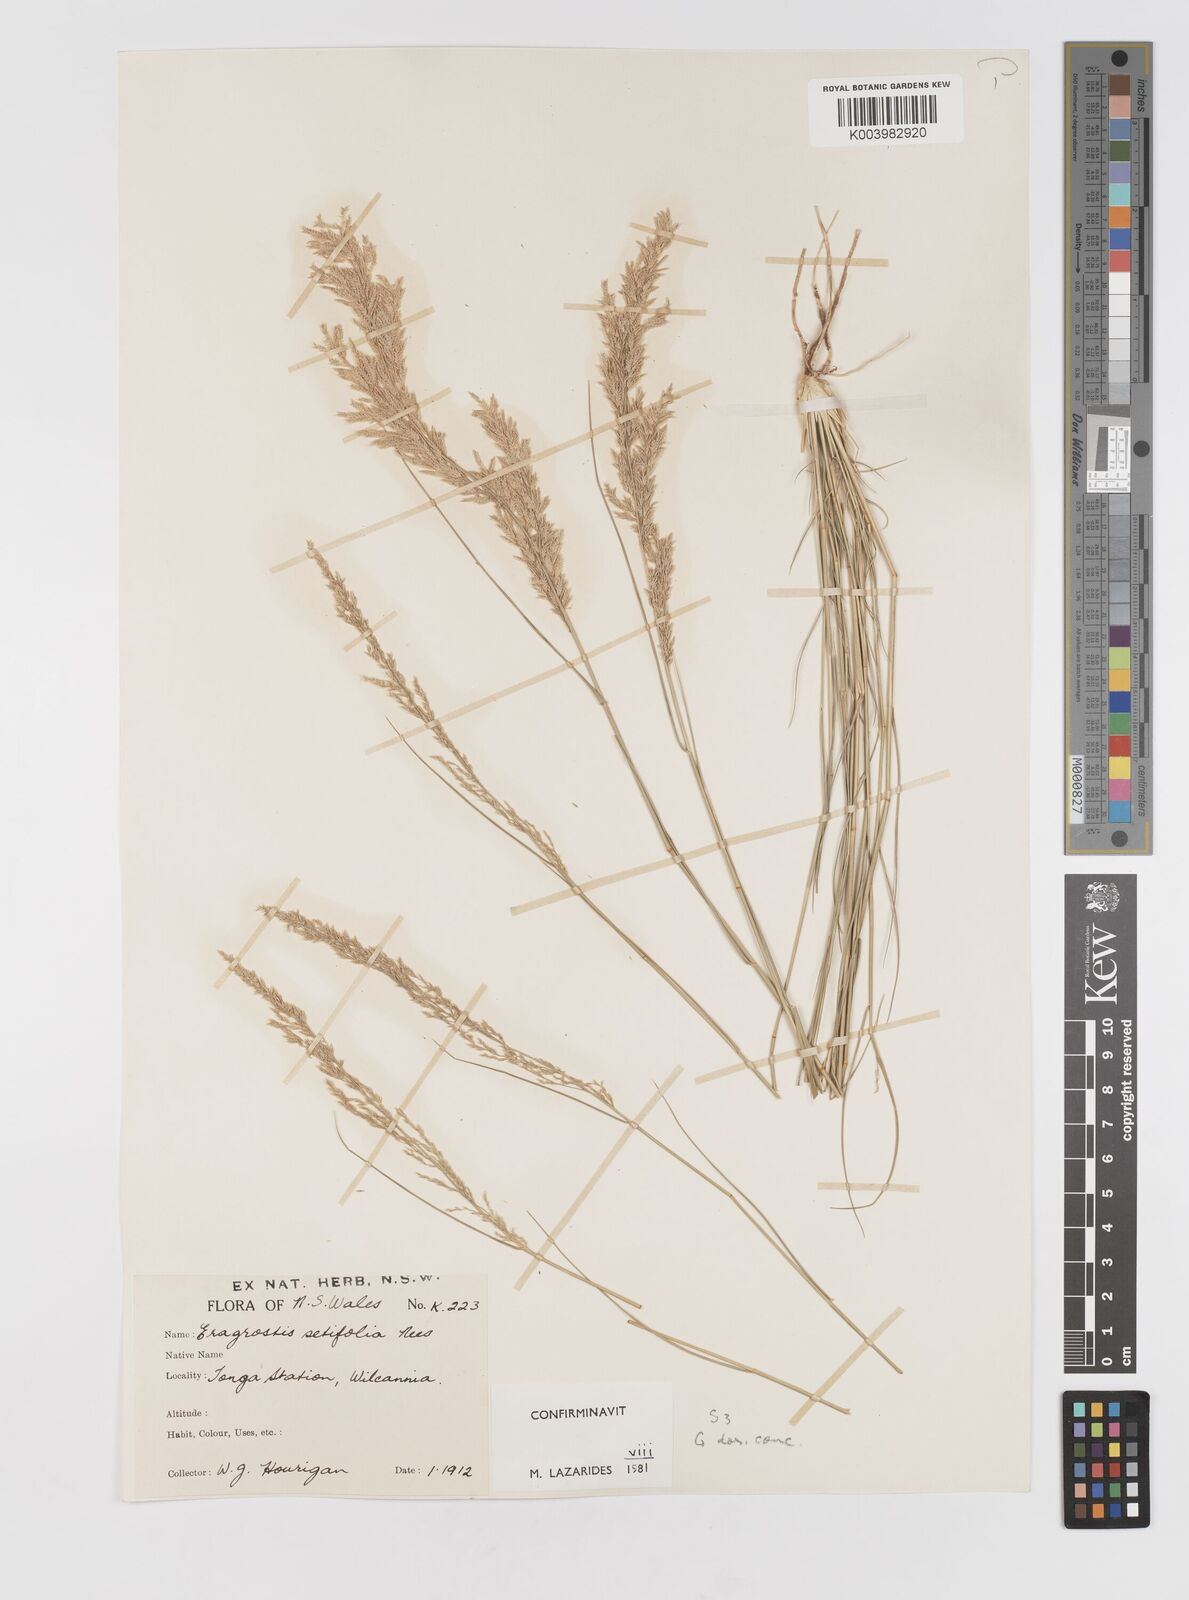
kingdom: Plantae
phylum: Tracheophyta
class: Liliopsida
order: Poales
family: Poaceae
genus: Eragrostis
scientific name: Eragrostis setifolia
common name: Bristleleaf lovegrass
